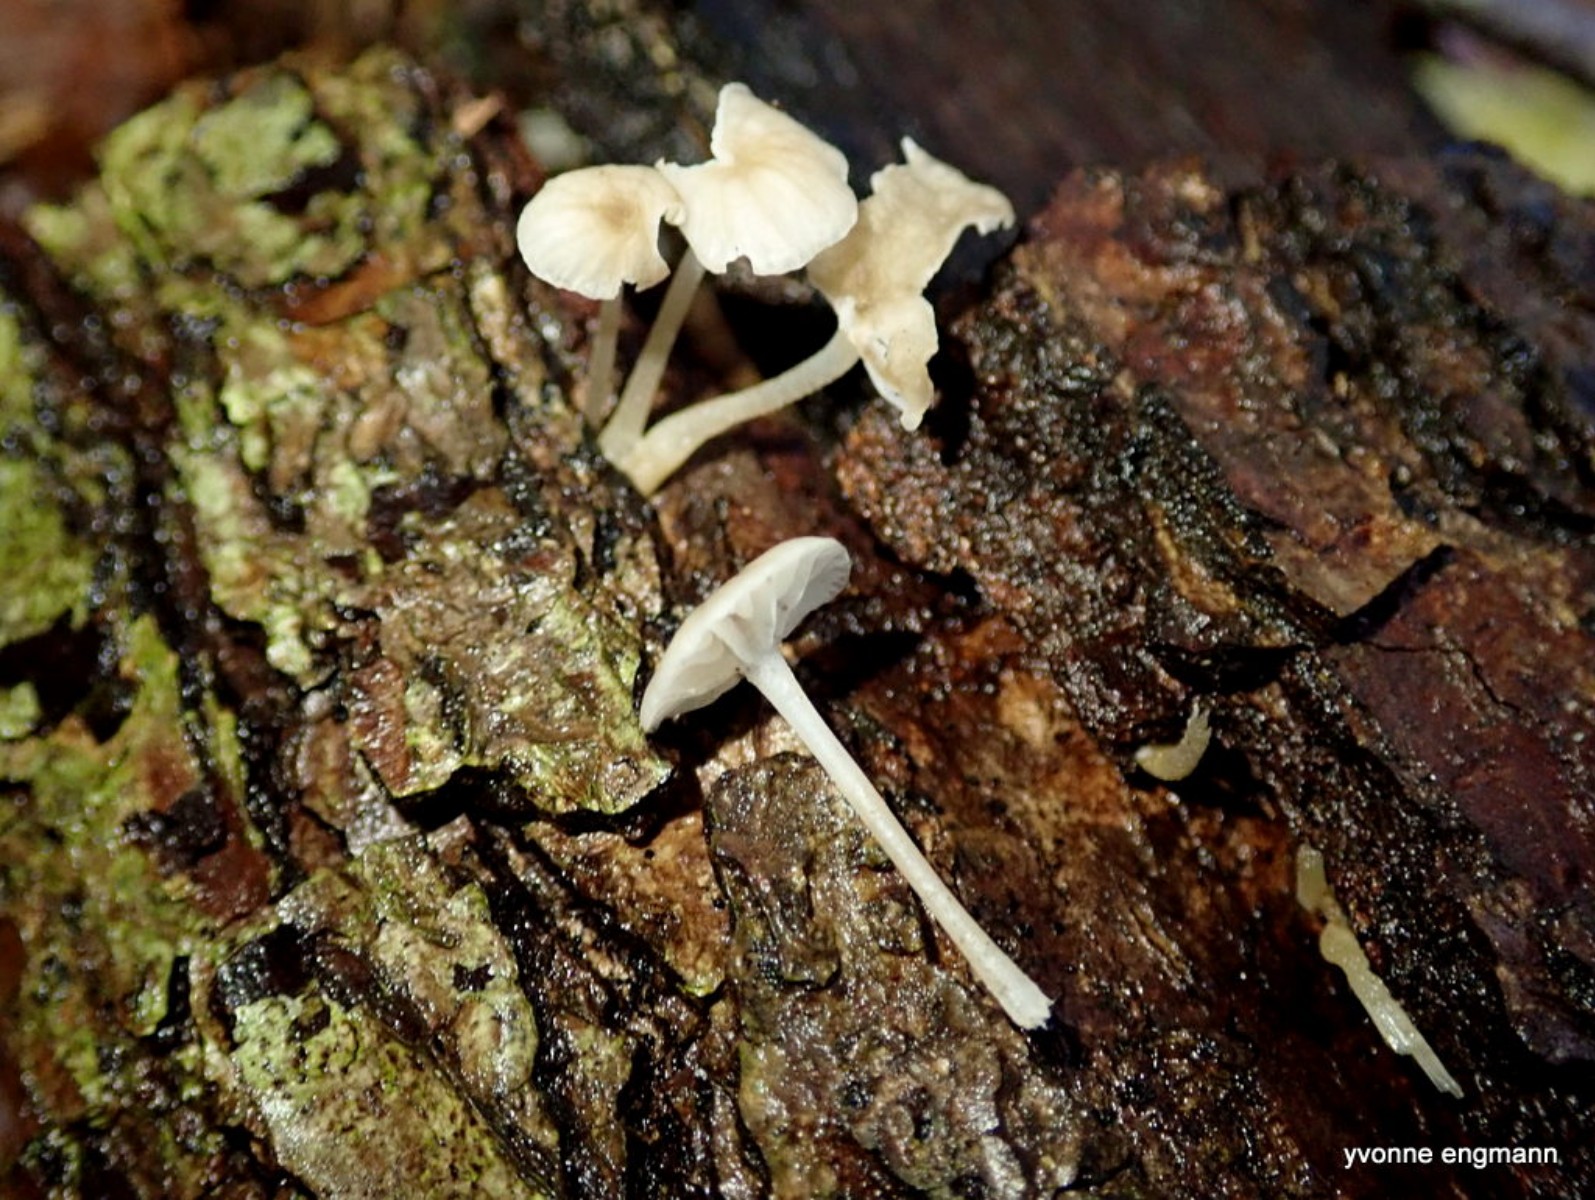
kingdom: Fungi
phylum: Basidiomycota
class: Agaricomycetes
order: Agaricales
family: Porotheleaceae
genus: Phloeomana
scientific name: Phloeomana speirea
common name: kvist-huesvamp
